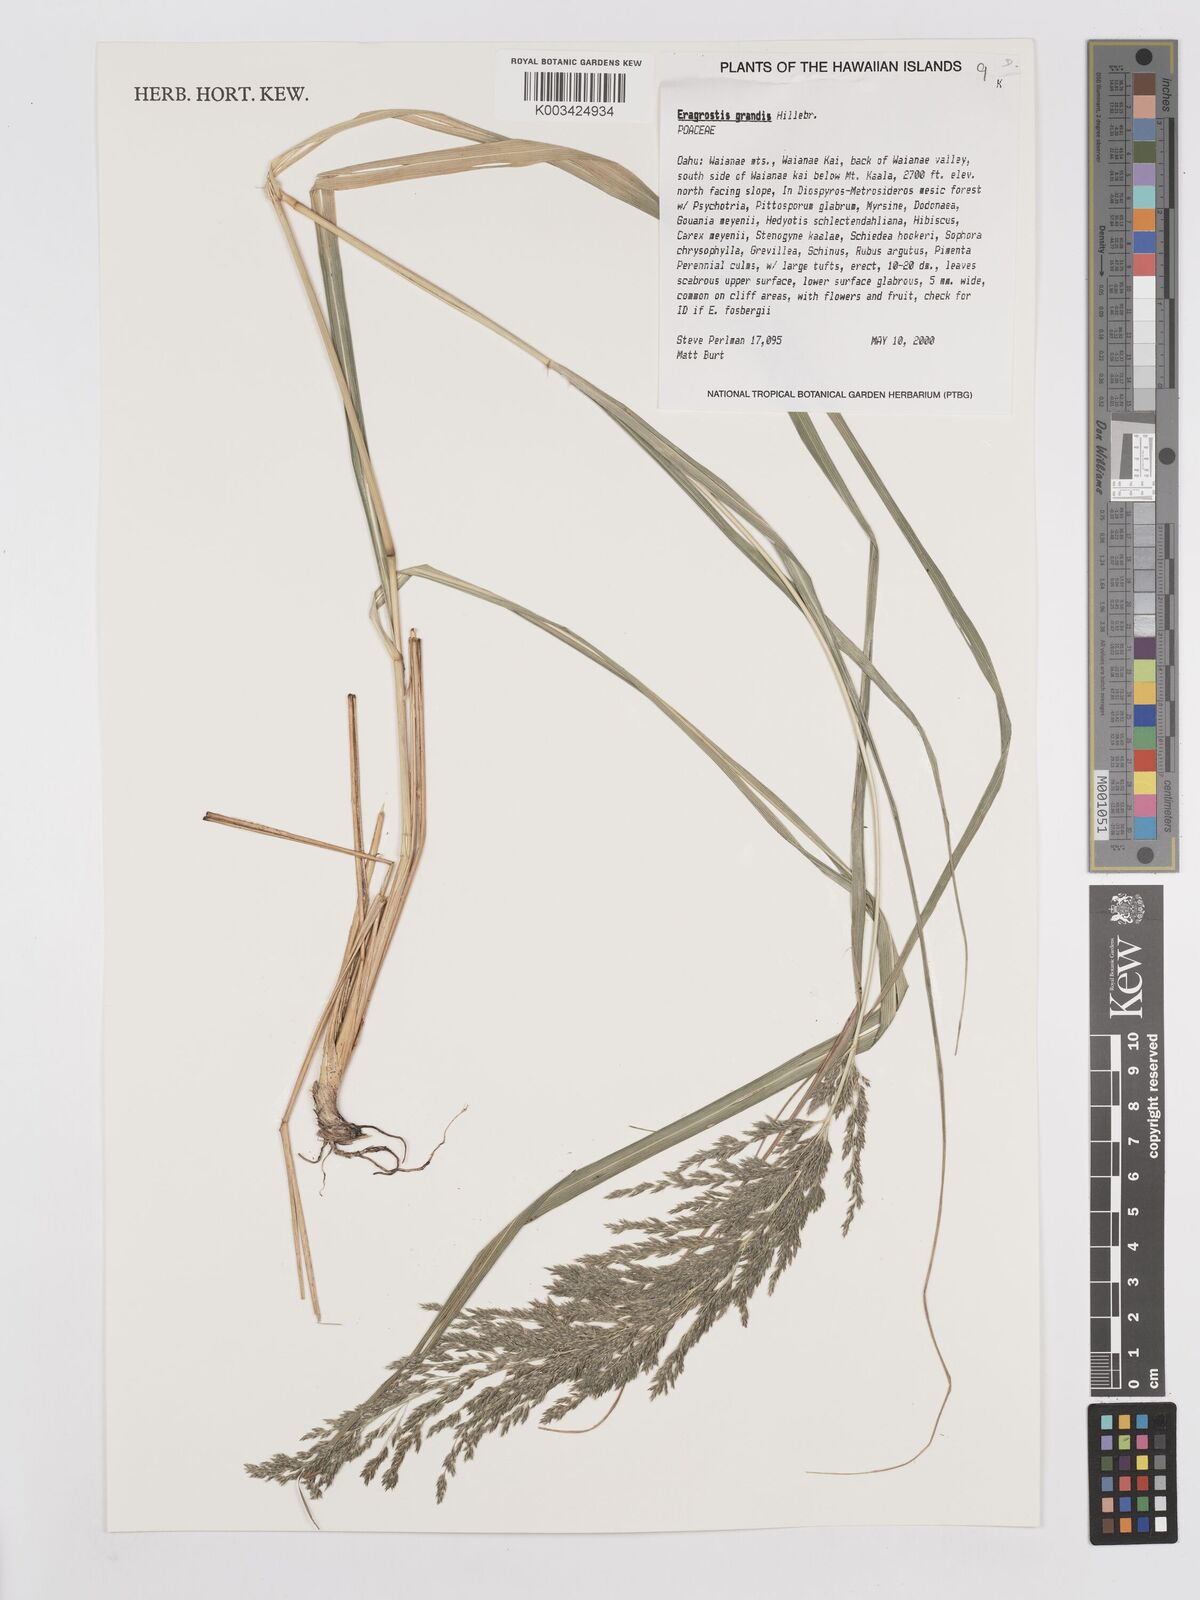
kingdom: Plantae
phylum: Tracheophyta
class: Liliopsida
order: Poales
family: Poaceae
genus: Eragrostis
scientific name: Eragrostis grandis
